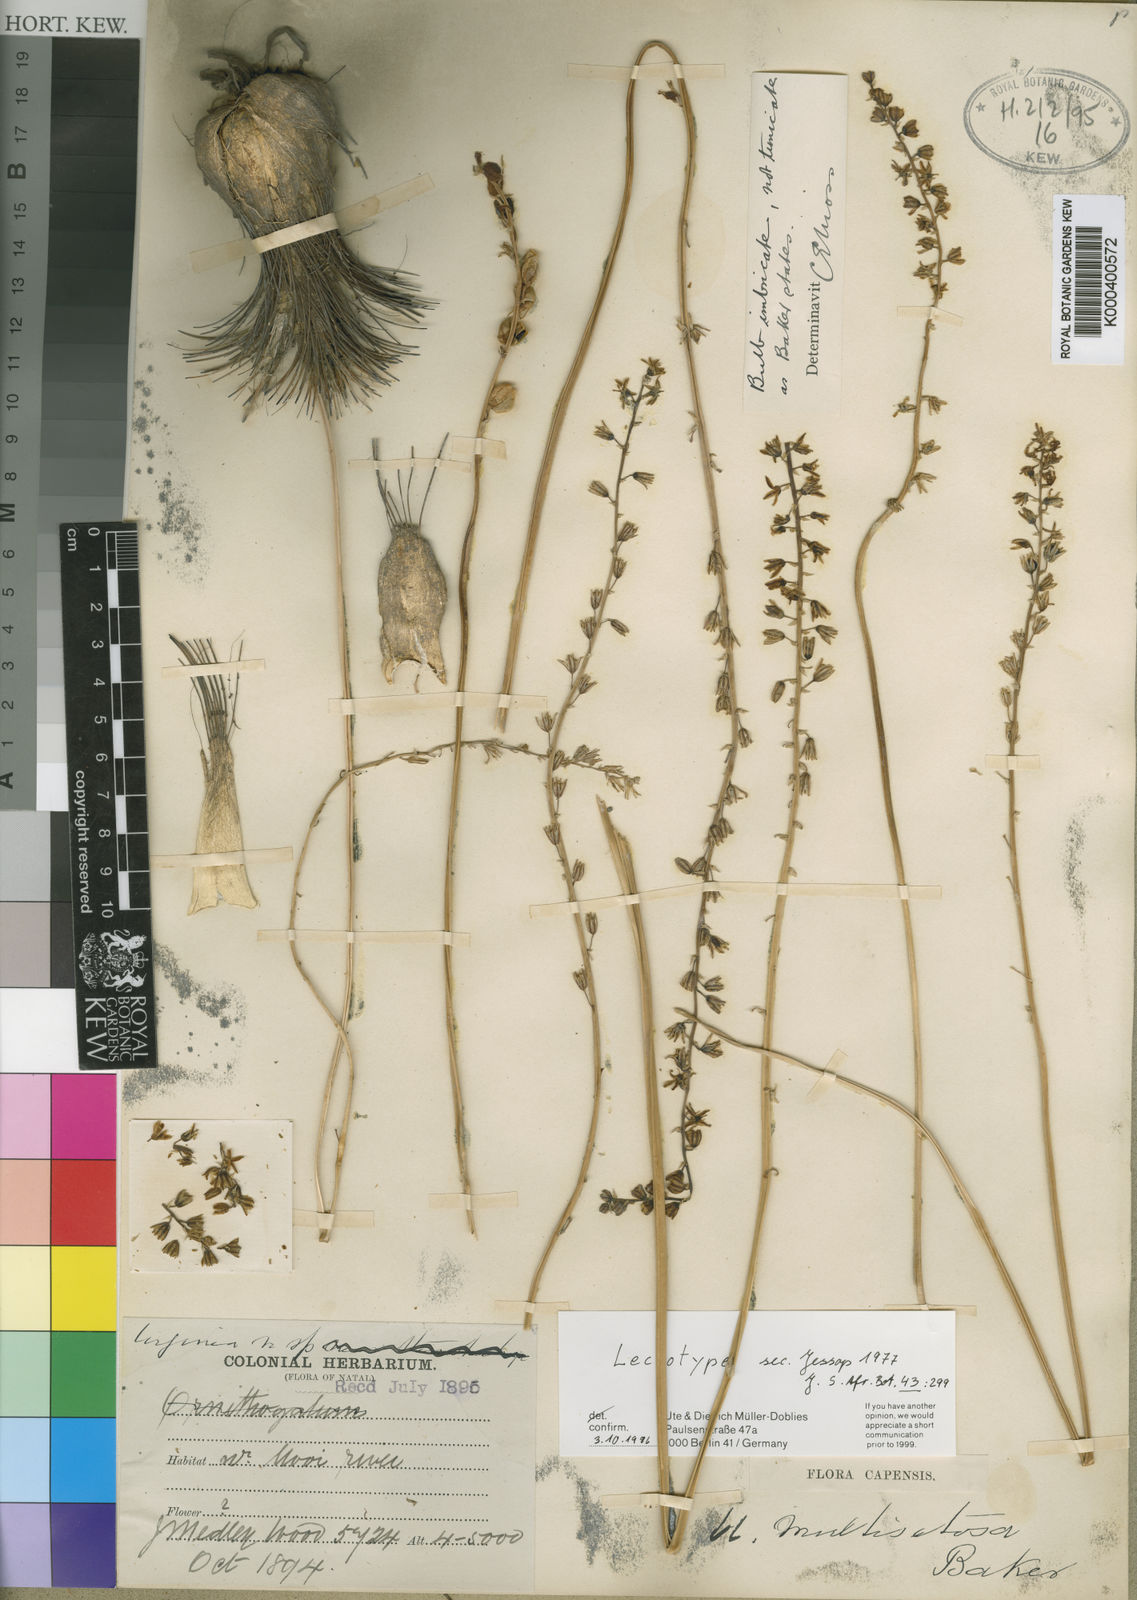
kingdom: Plantae
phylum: Tracheophyta
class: Liliopsida
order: Asparagales
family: Asparagaceae
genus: Drimia
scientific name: Drimia multisetosa
